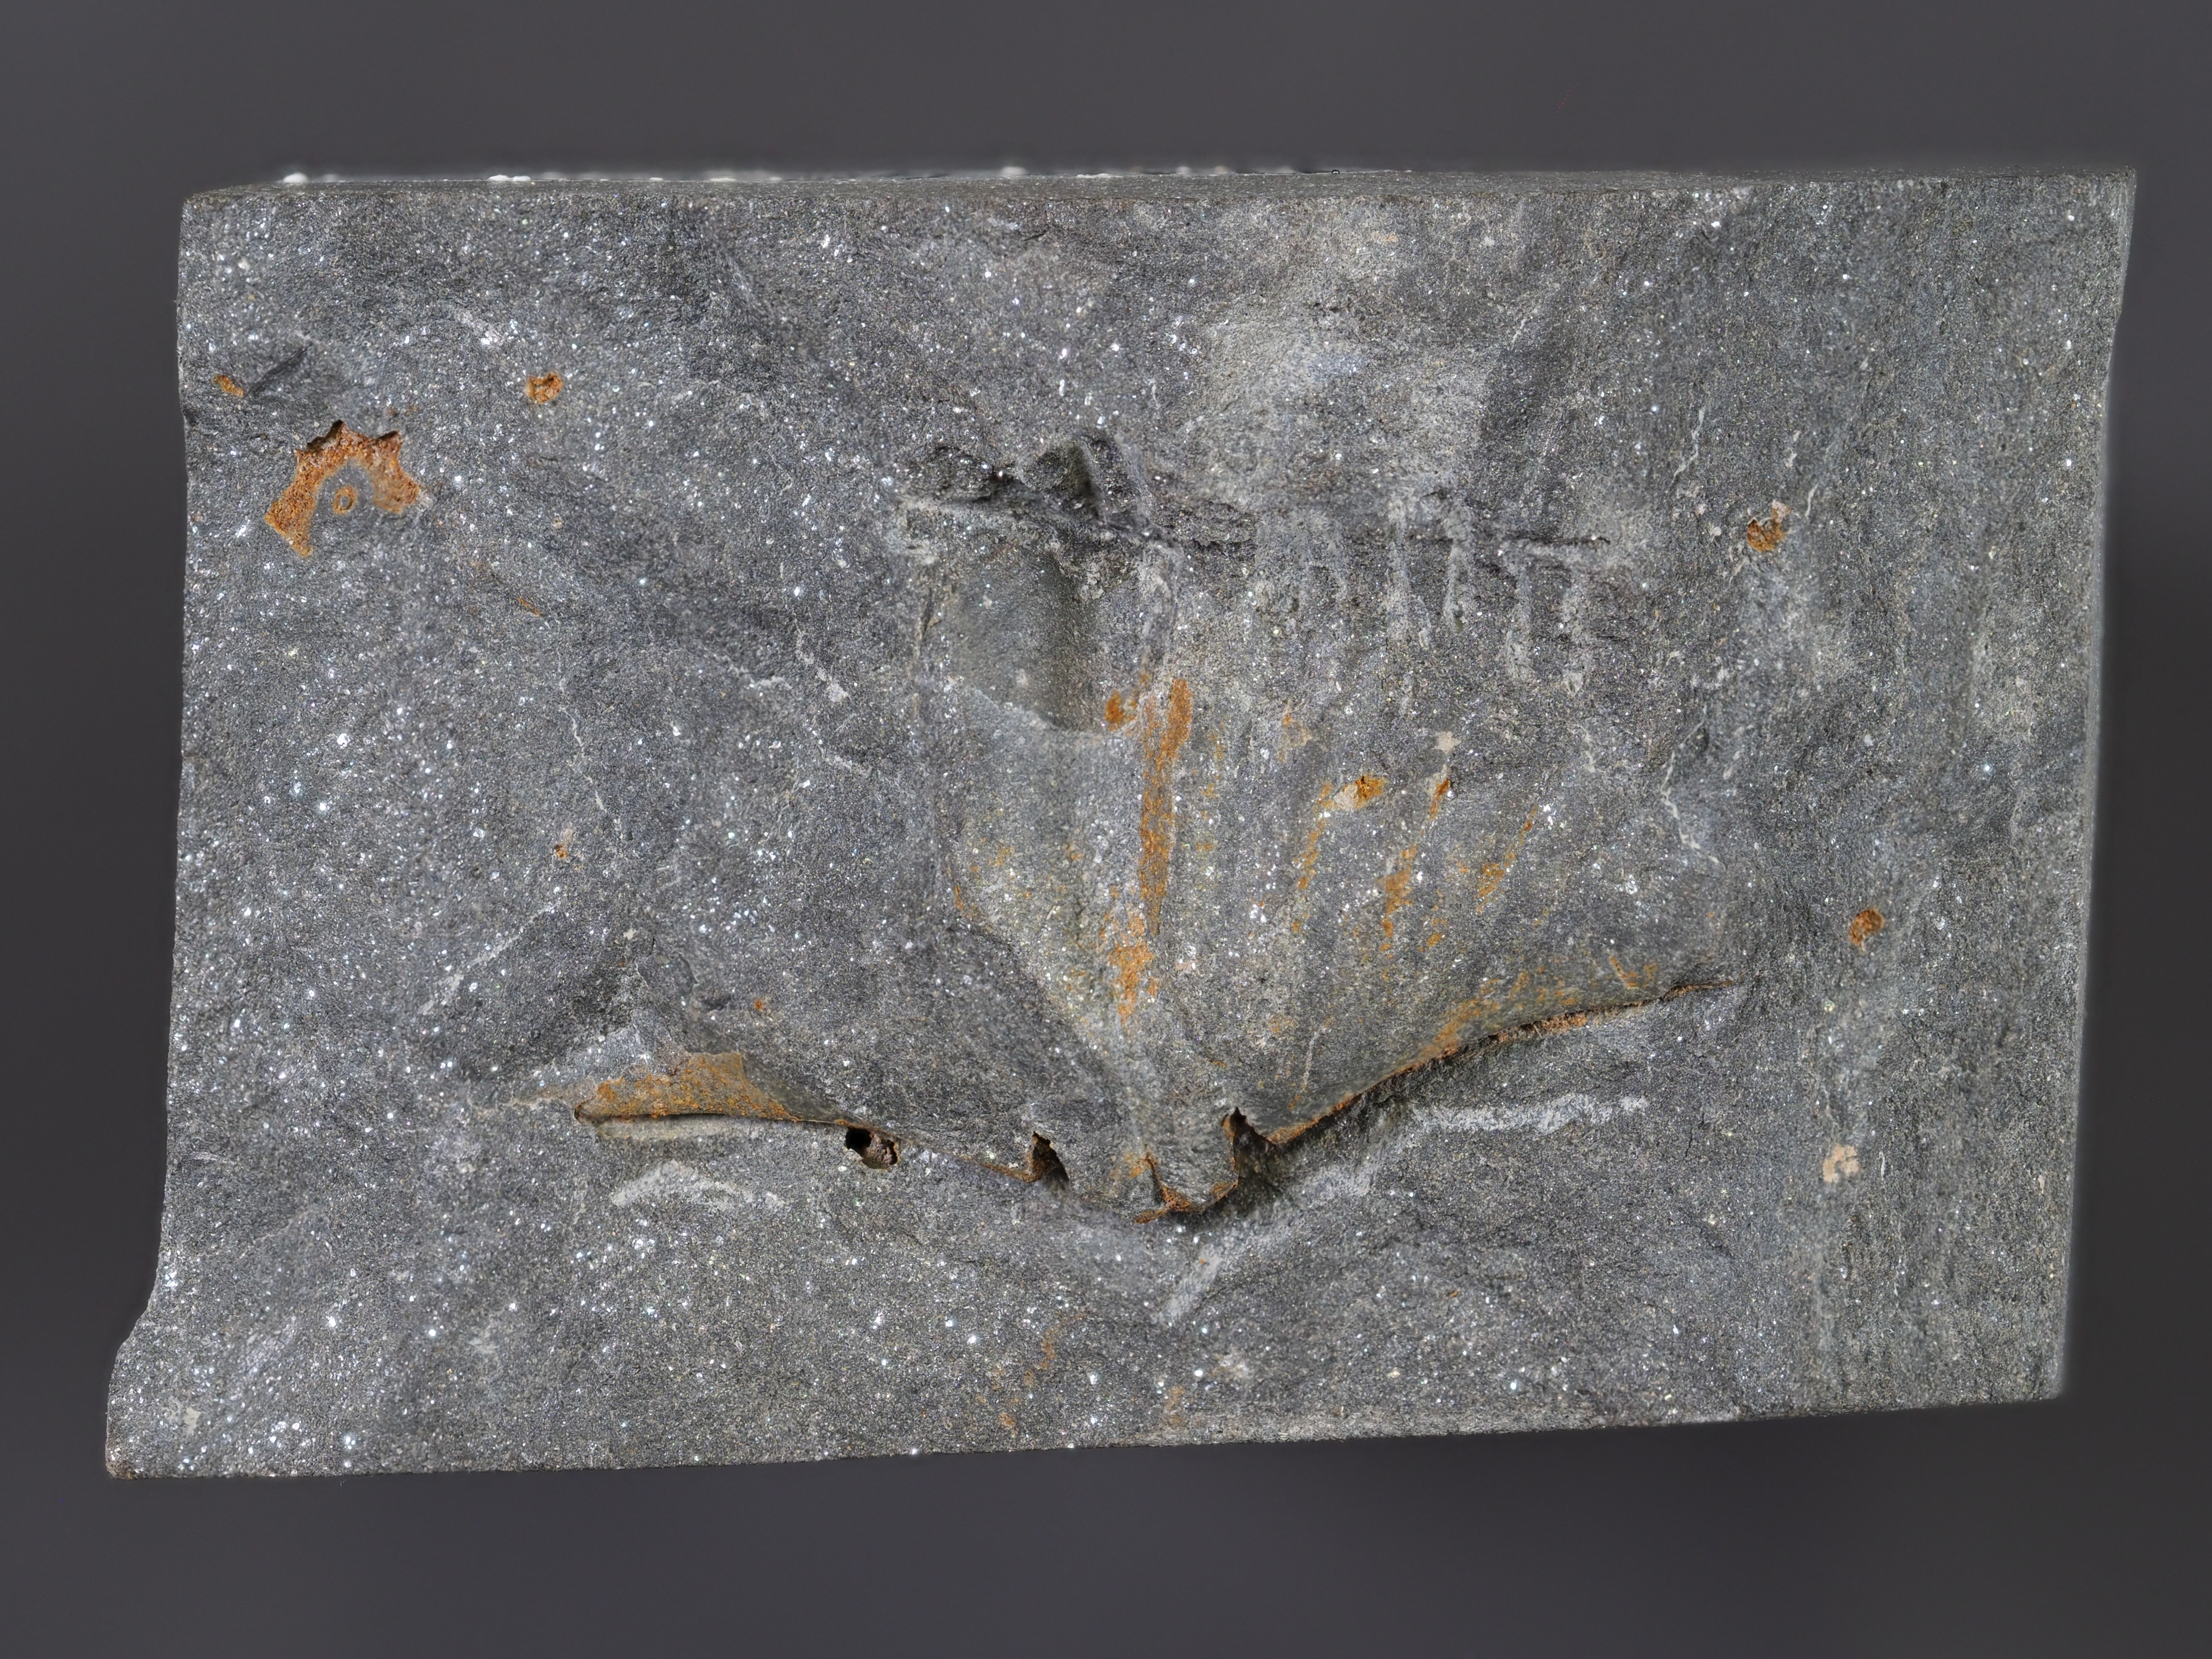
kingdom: Animalia
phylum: Brachiopoda
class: Rhynchonellata
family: Hysterolitidae
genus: Arduspirifer
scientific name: Arduspirifer
